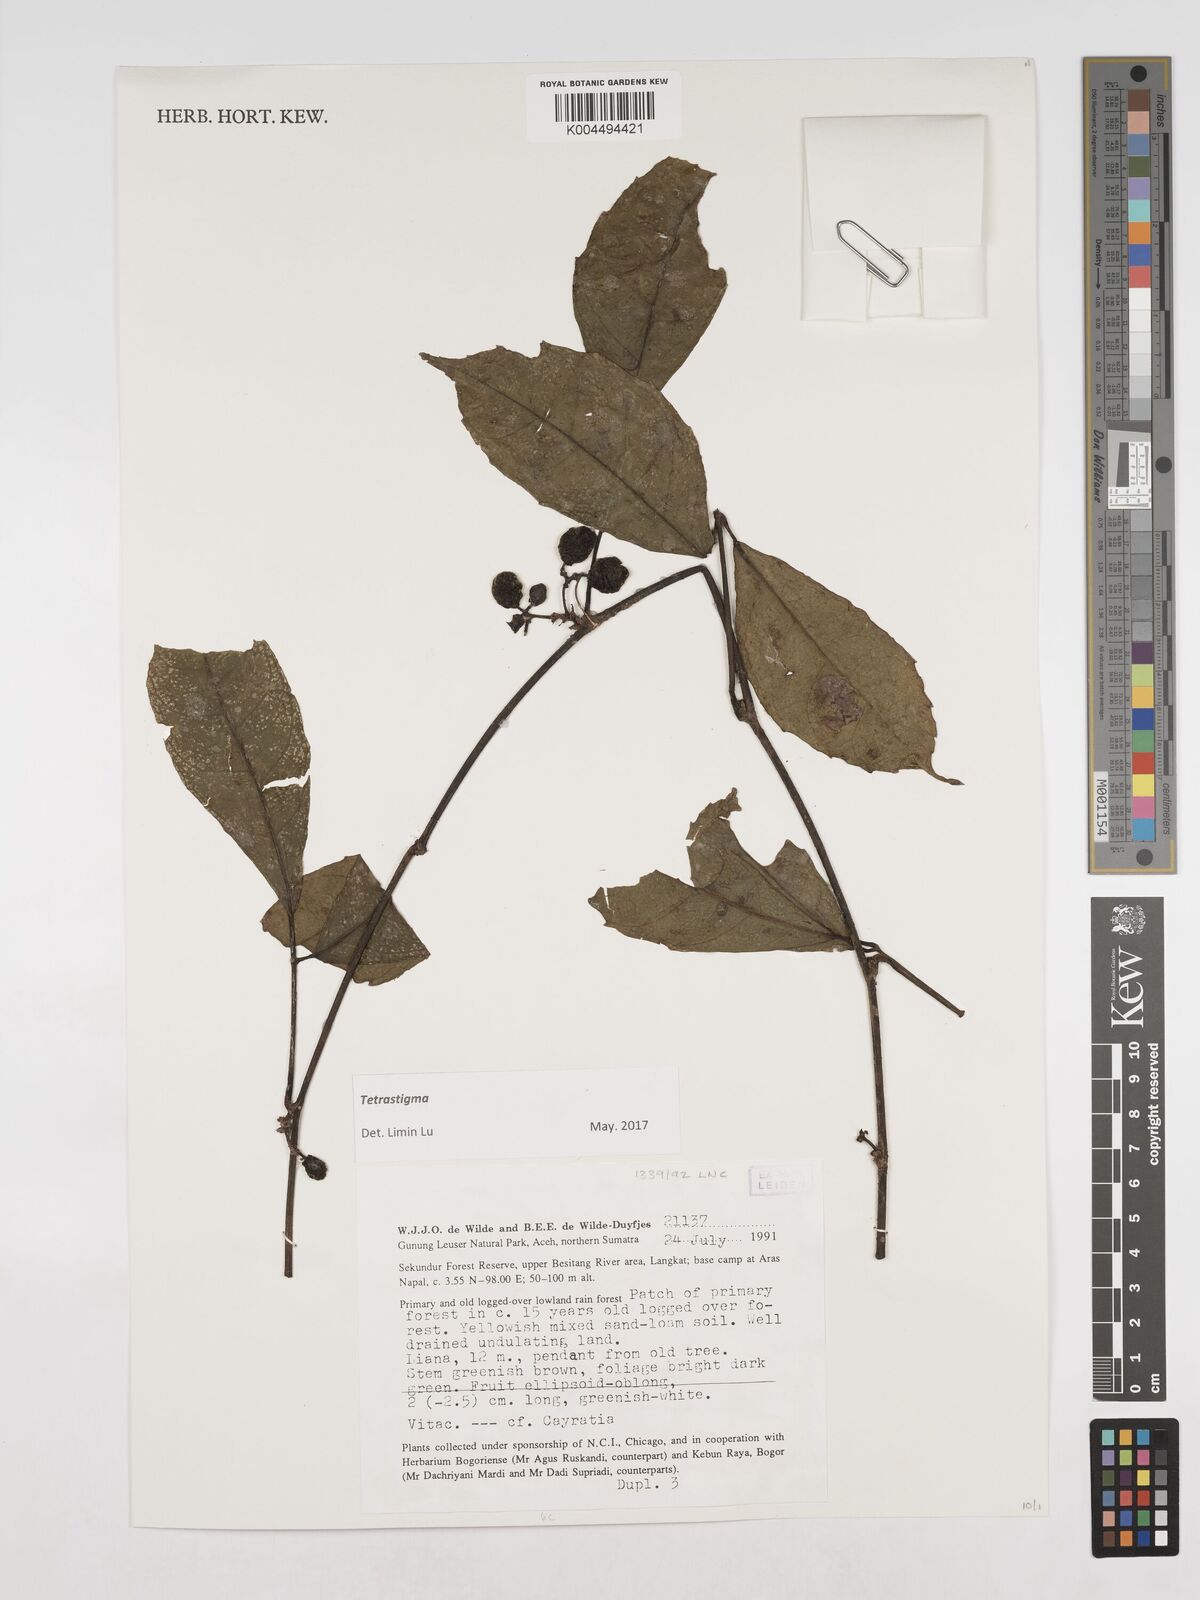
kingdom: Plantae
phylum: Tracheophyta
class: Magnoliopsida
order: Vitales
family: Vitaceae
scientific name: Vitaceae
